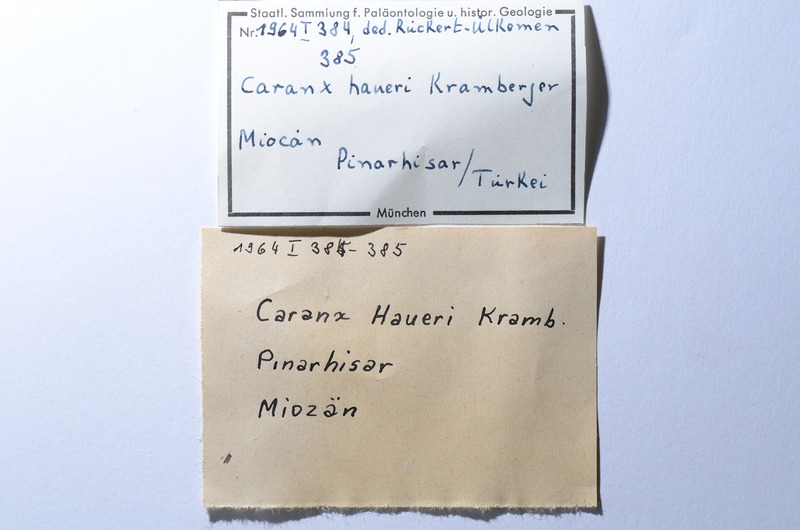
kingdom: Animalia
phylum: Chordata
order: Perciformes
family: Carangidae
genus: Caranx
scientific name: Caranx
